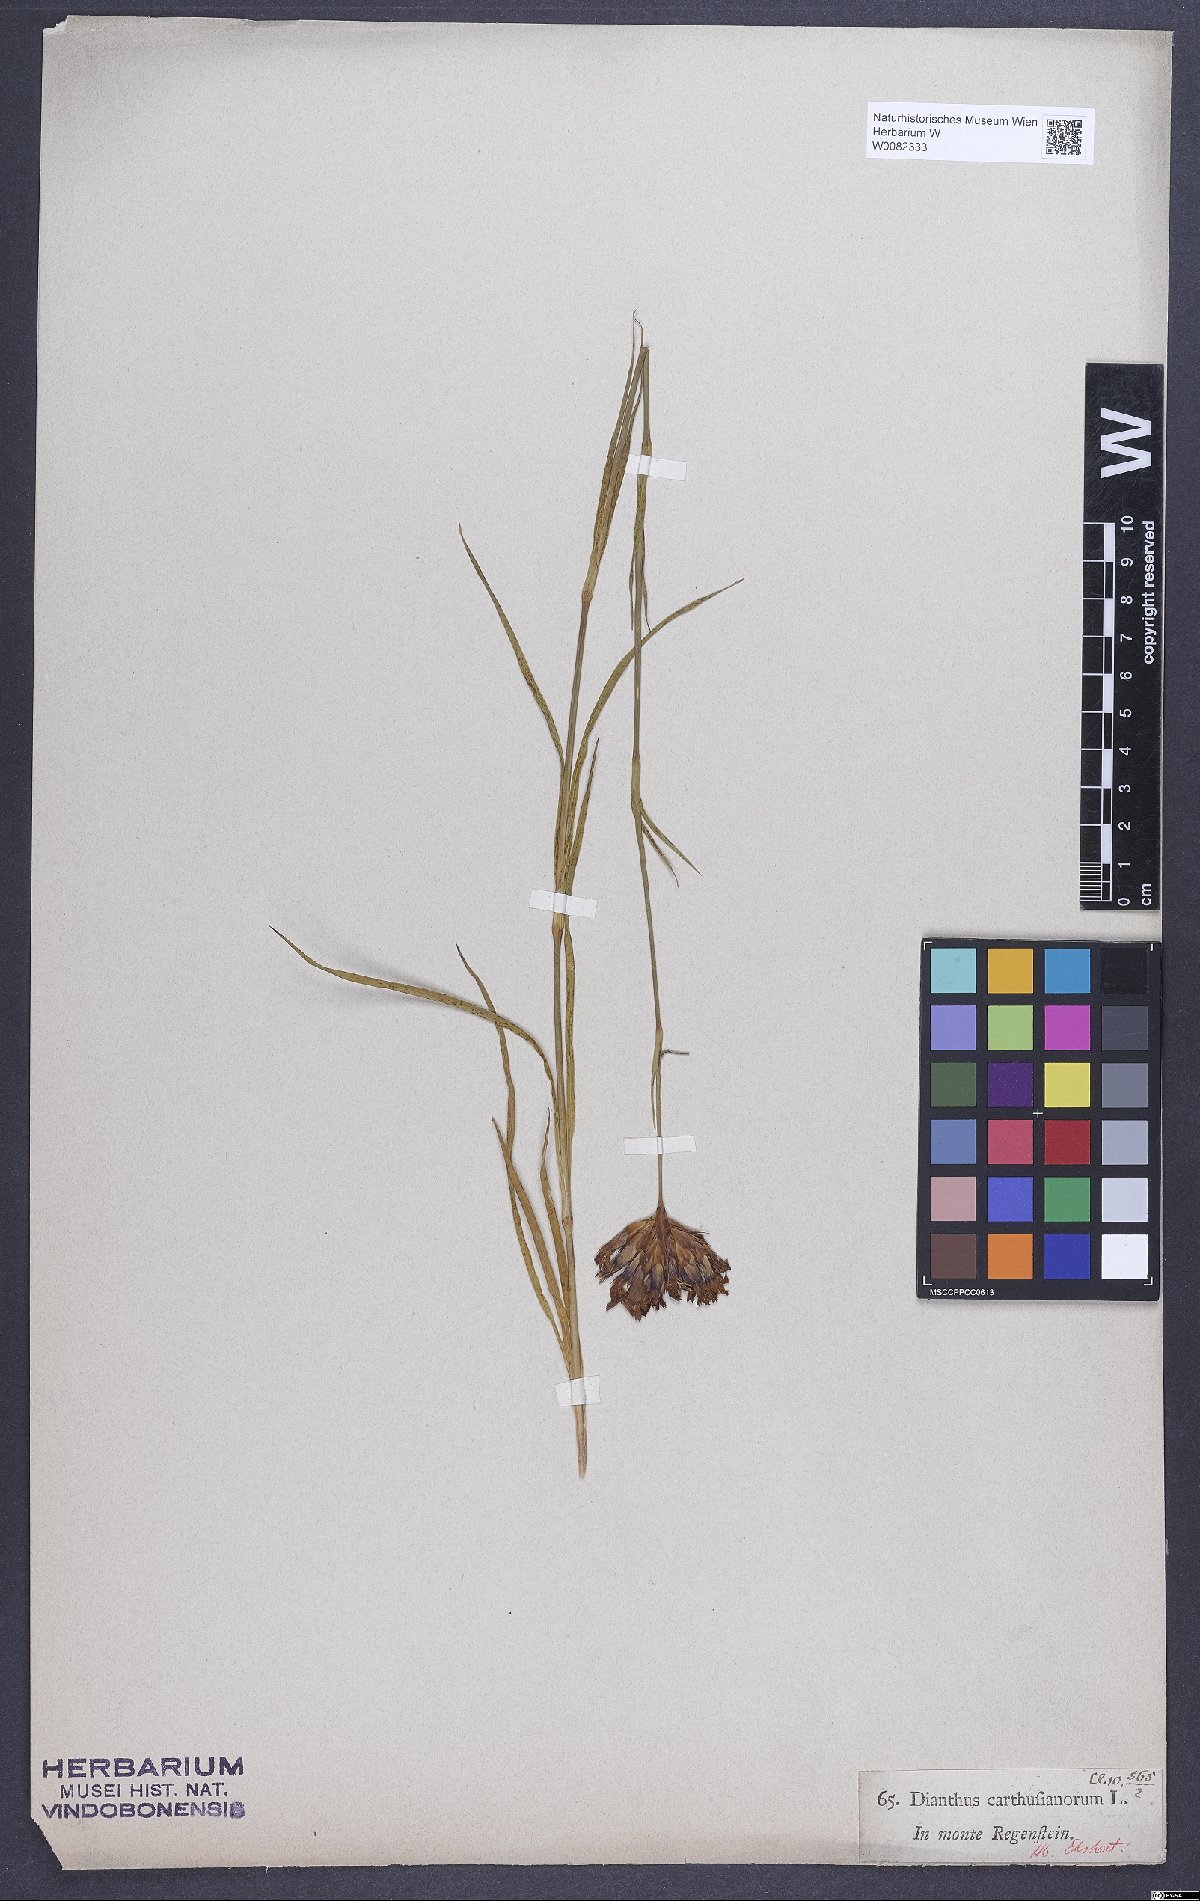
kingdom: Plantae
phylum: Tracheophyta
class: Magnoliopsida
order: Caryophyllales
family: Caryophyllaceae
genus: Dianthus
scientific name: Dianthus carthusianorum
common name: Carthusian pink
